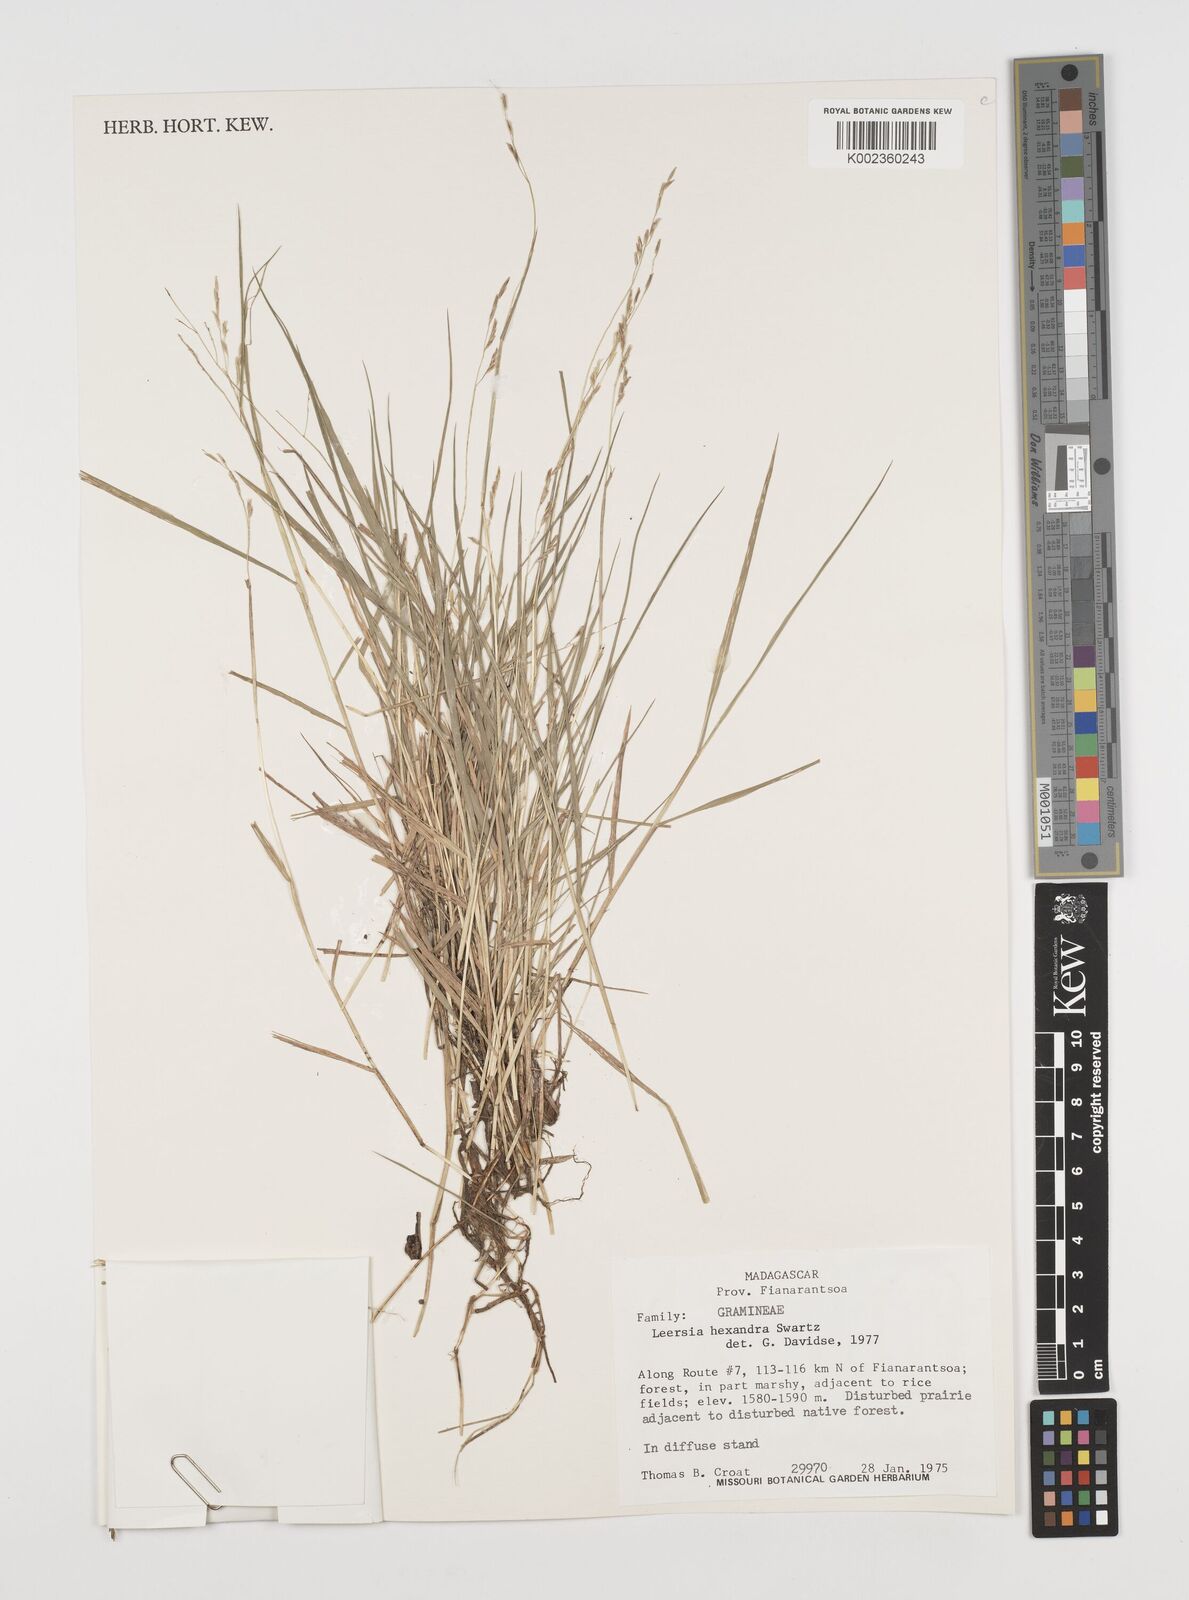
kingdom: Plantae
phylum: Tracheophyta
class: Liliopsida
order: Poales
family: Poaceae
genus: Leersia
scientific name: Leersia hexandra
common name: Southern cut grass
